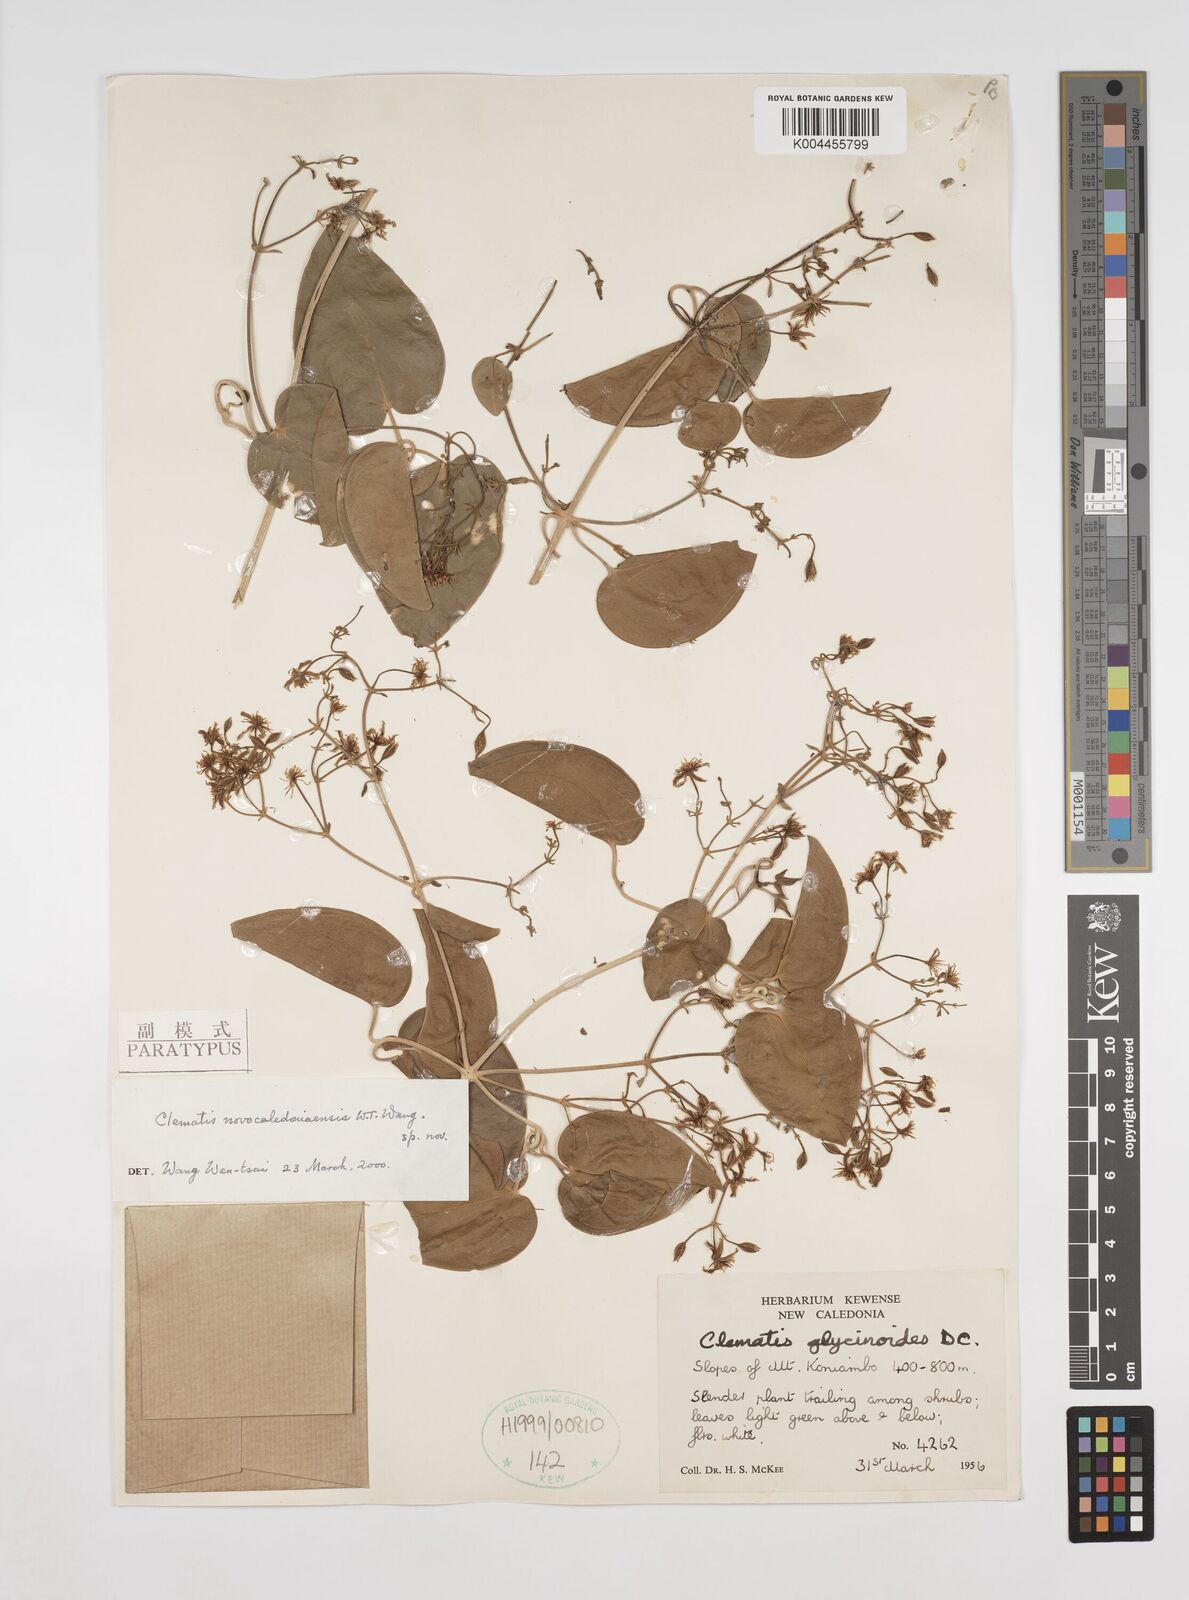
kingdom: Plantae
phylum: Tracheophyta
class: Magnoliopsida
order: Ranunculales
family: Ranunculaceae
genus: Clematis
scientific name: Clematis novocaledoniaensis
